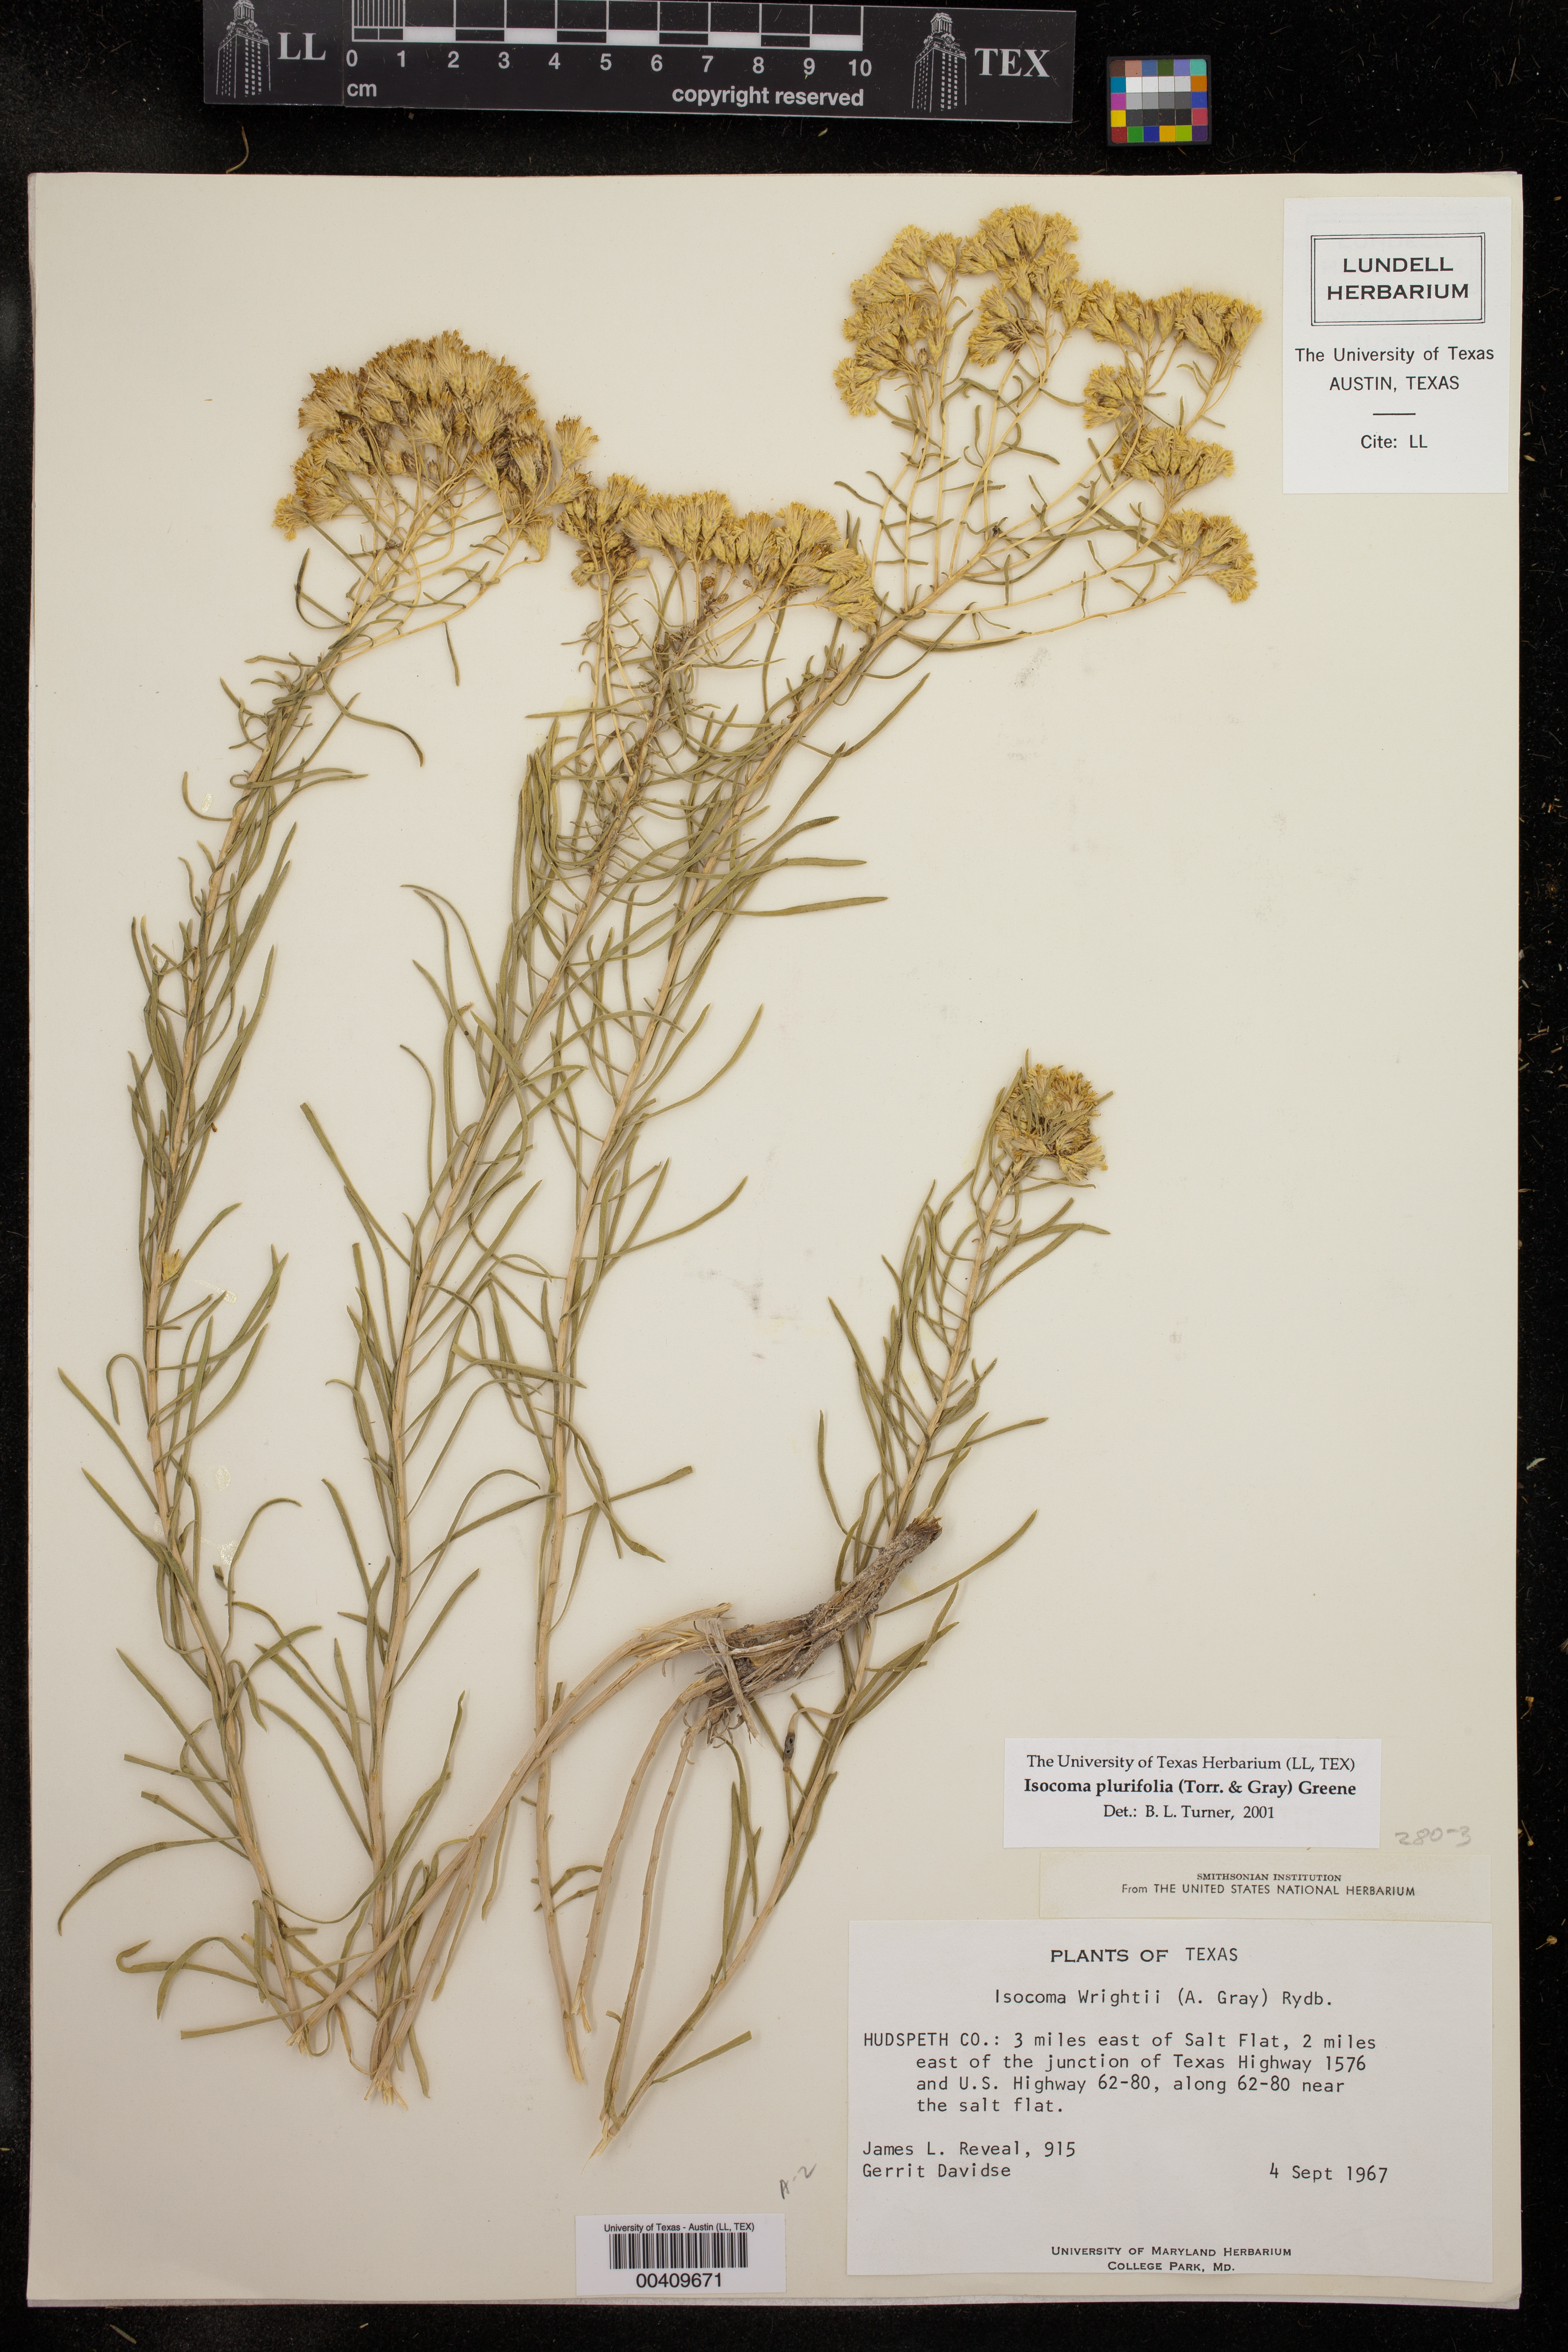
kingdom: Plantae
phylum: Tracheophyta
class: Magnoliopsida
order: Asterales
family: Asteraceae
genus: Isocoma
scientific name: Isocoma pluriflora
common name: Southern jimmyweed
